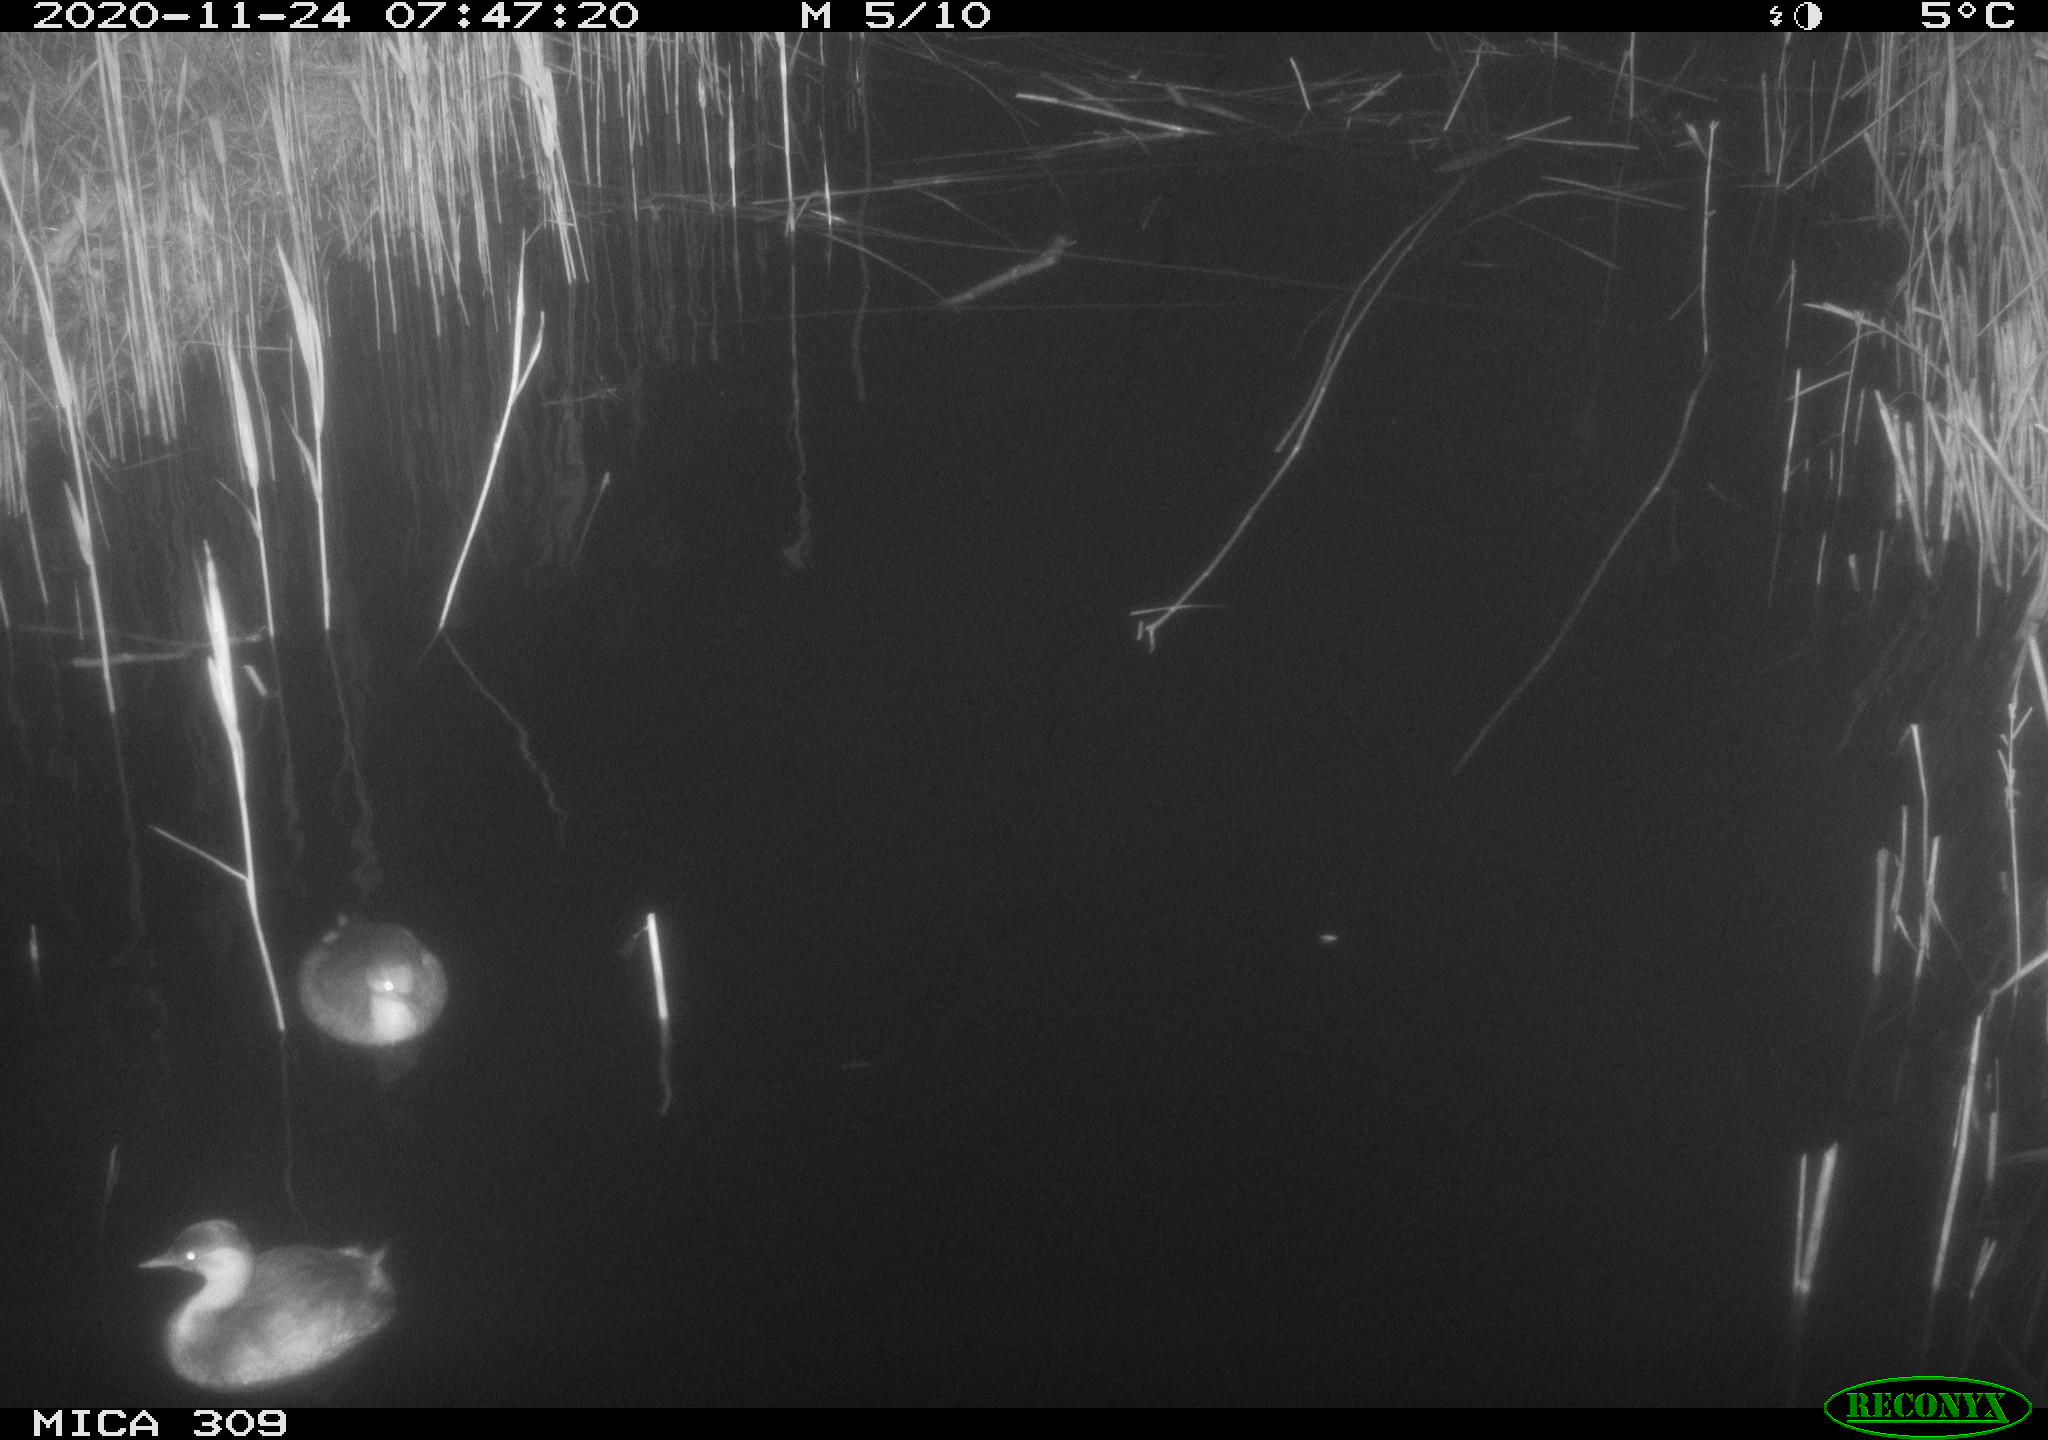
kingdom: Animalia
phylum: Chordata
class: Aves
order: Podicipediformes
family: Podicipedidae
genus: Tachybaptus
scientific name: Tachybaptus ruficollis
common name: Little grebe
